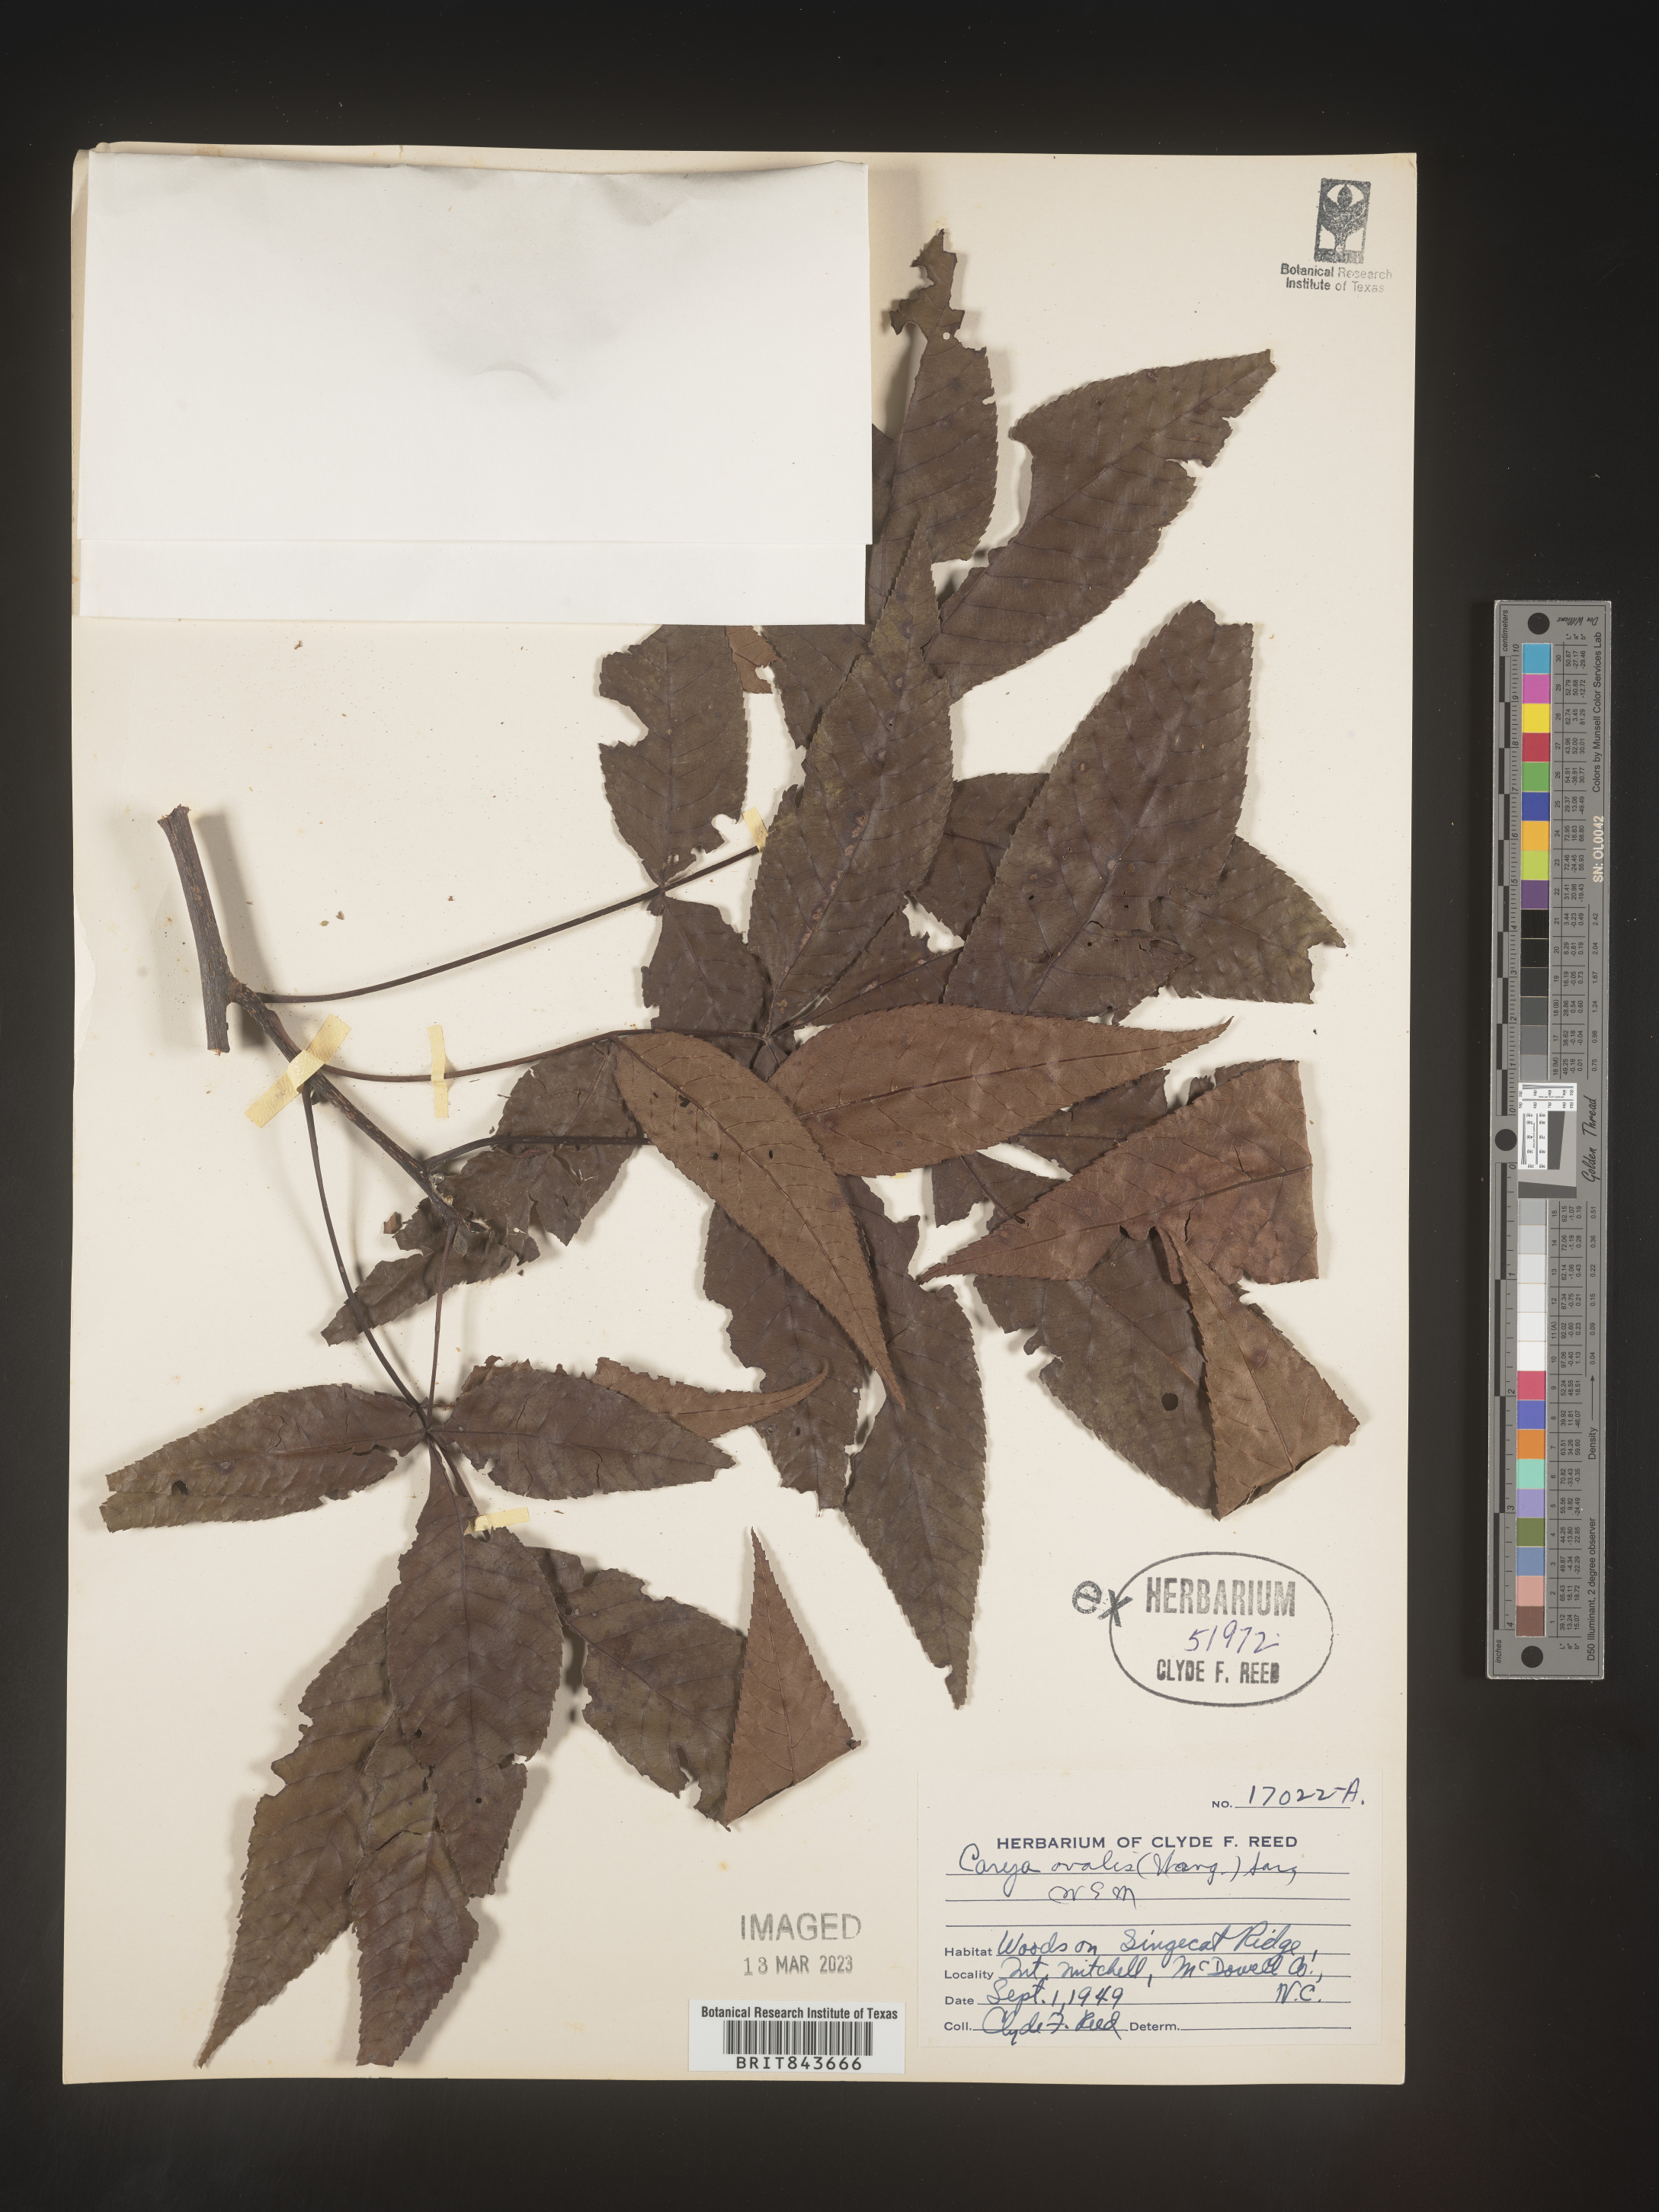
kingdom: Plantae
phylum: Tracheophyta
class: Magnoliopsida
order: Fagales
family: Juglandaceae
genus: Carya
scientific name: Carya ovata
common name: Shagbark hickory
